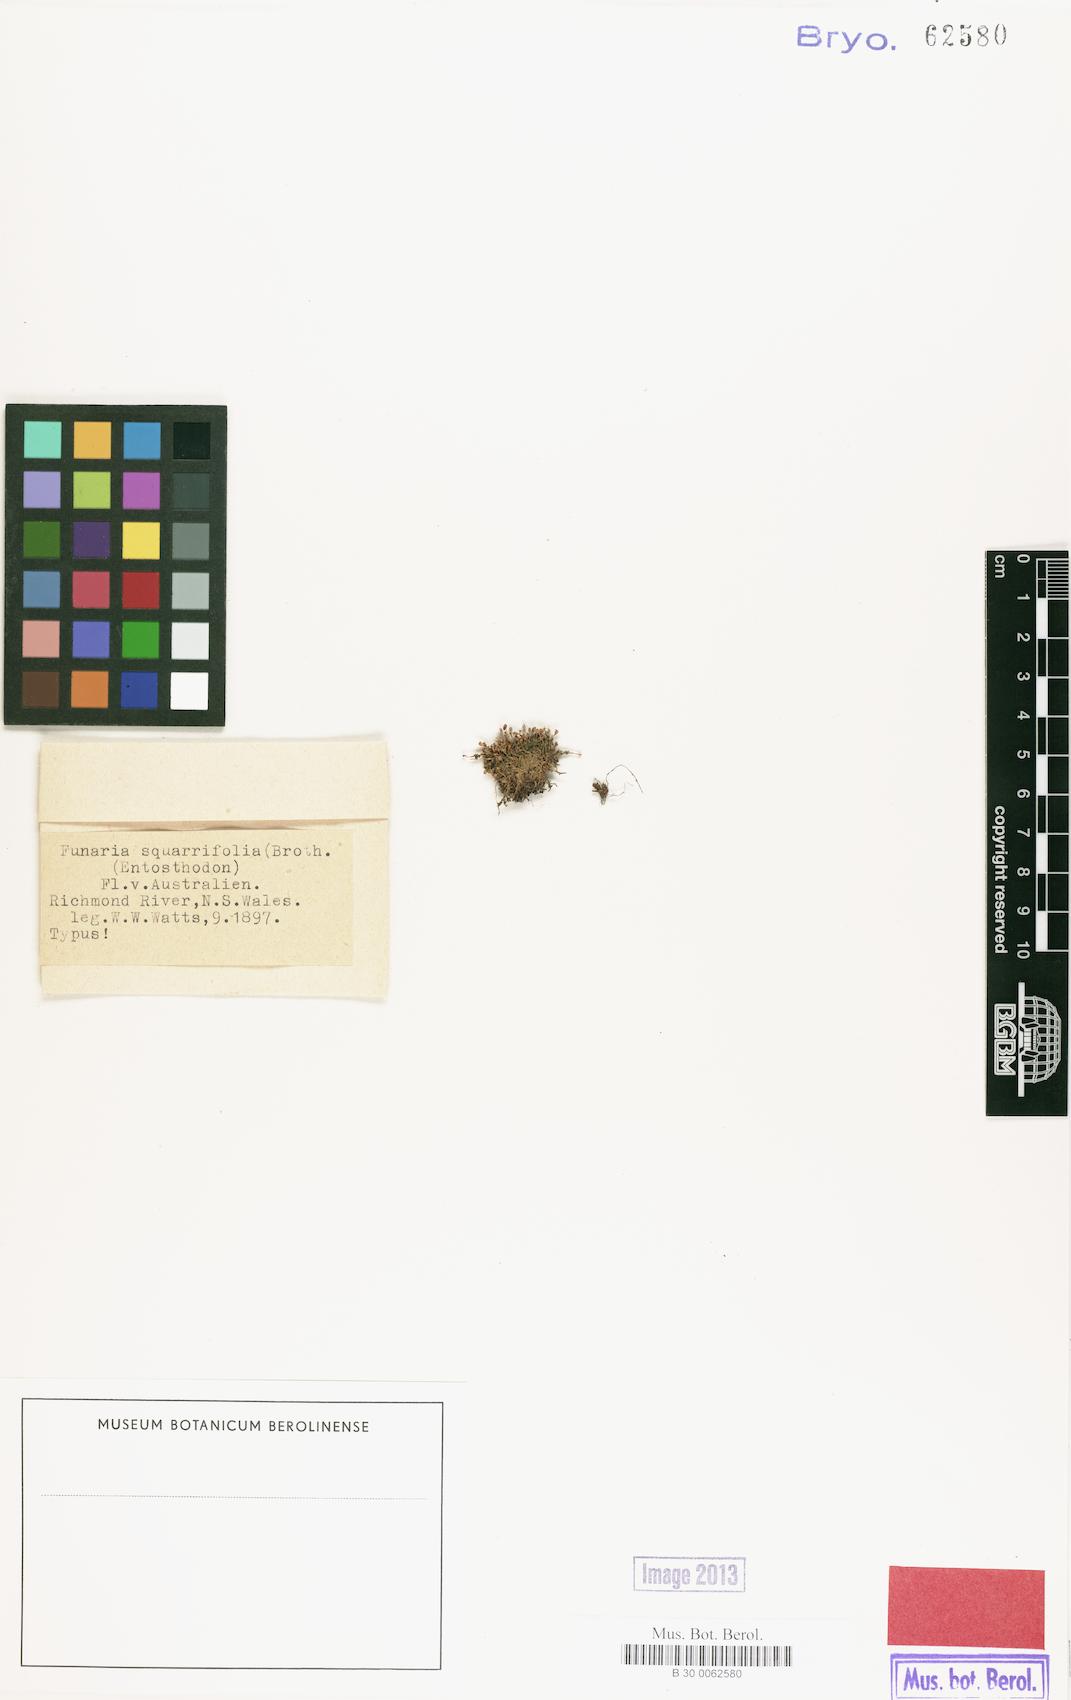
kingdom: Plantae
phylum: Bryophyta
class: Bryopsida
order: Funariales
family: Funariaceae
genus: Entosthodon
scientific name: Entosthodon smithhurstii
